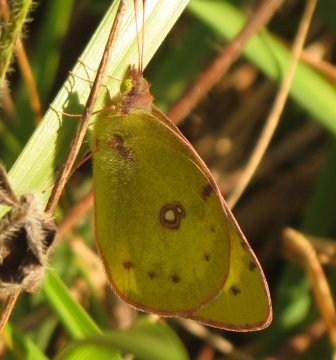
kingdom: Animalia
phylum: Arthropoda
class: Insecta
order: Lepidoptera
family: Pieridae
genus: Colias
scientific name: Colias interior
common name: Pink-edged Sulphur
